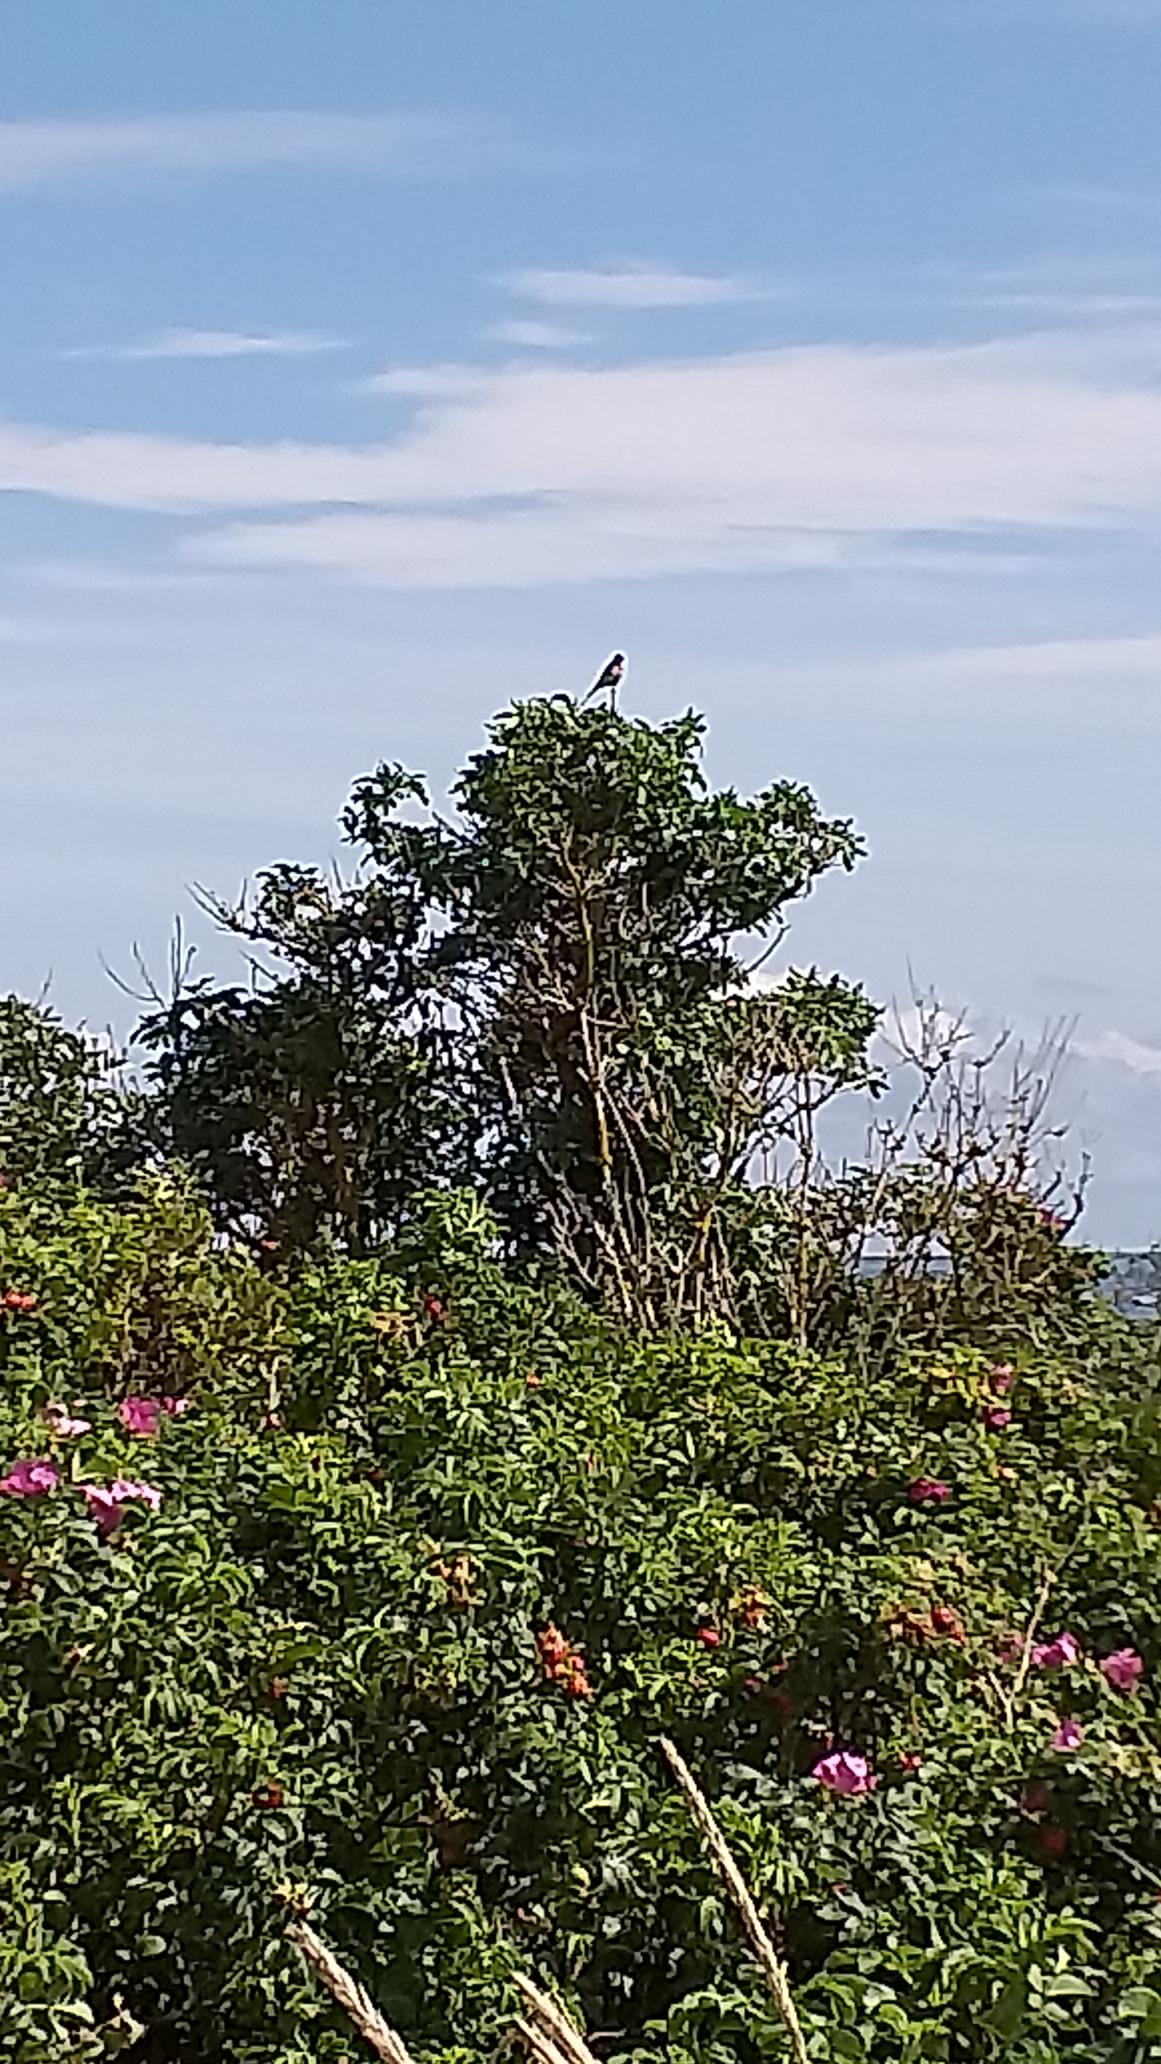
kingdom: Animalia
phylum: Chordata
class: Aves
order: Passeriformes
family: Fringillidae
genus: Linaria
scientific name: Linaria cannabina
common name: Tornirisk
